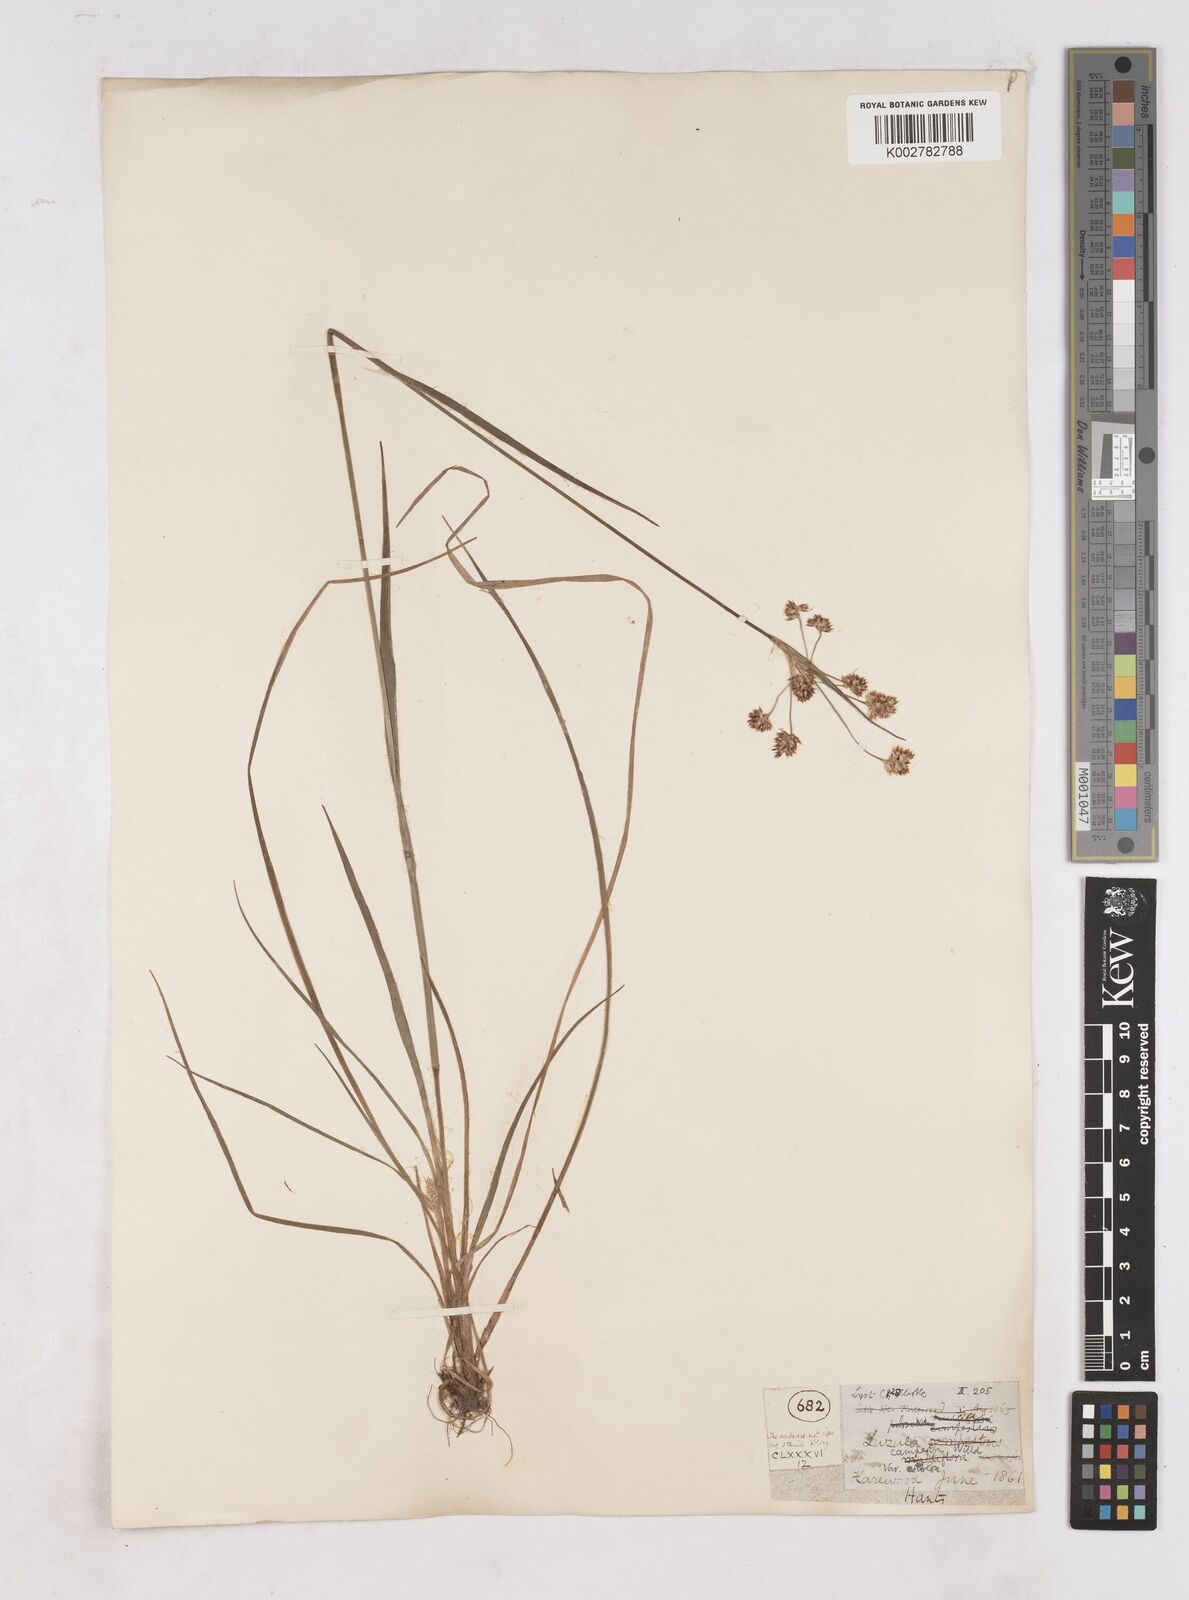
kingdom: Plantae
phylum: Tracheophyta
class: Liliopsida
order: Poales
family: Juncaceae
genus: Luzula
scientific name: Luzula campestris
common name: Field wood-rush
